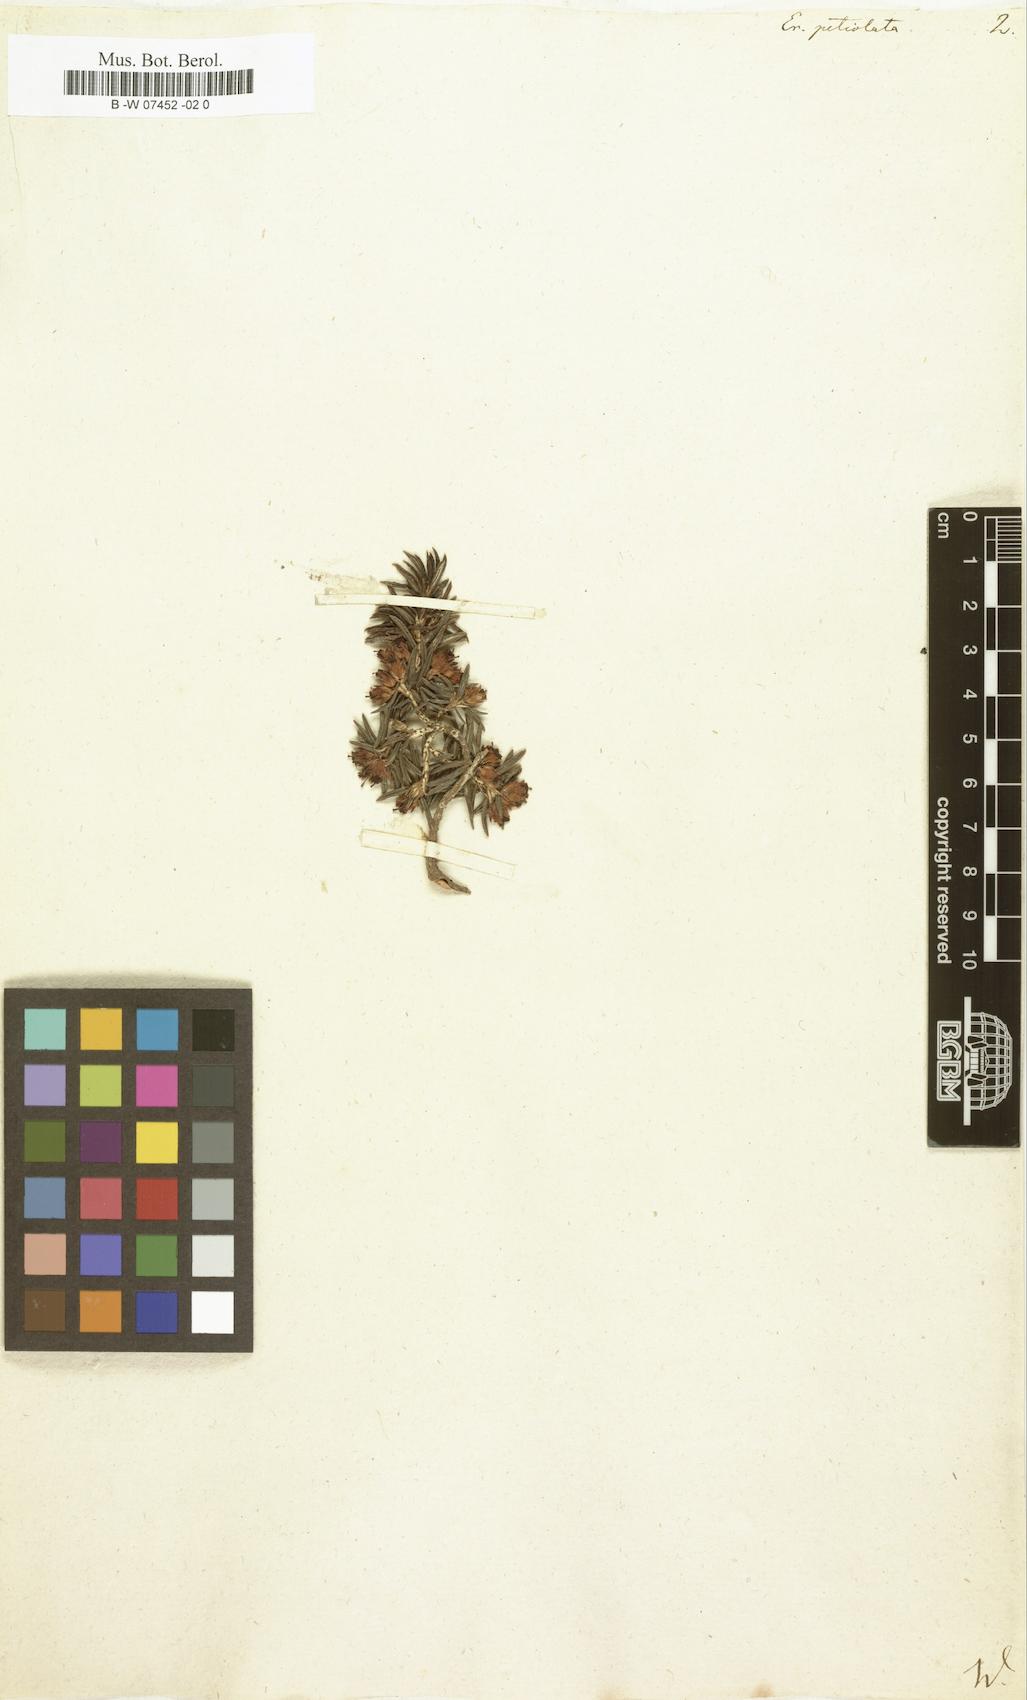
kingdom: Plantae
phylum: Tracheophyta
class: Magnoliopsida
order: Ericales
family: Ericaceae
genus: Erica
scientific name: Erica petiolaris
